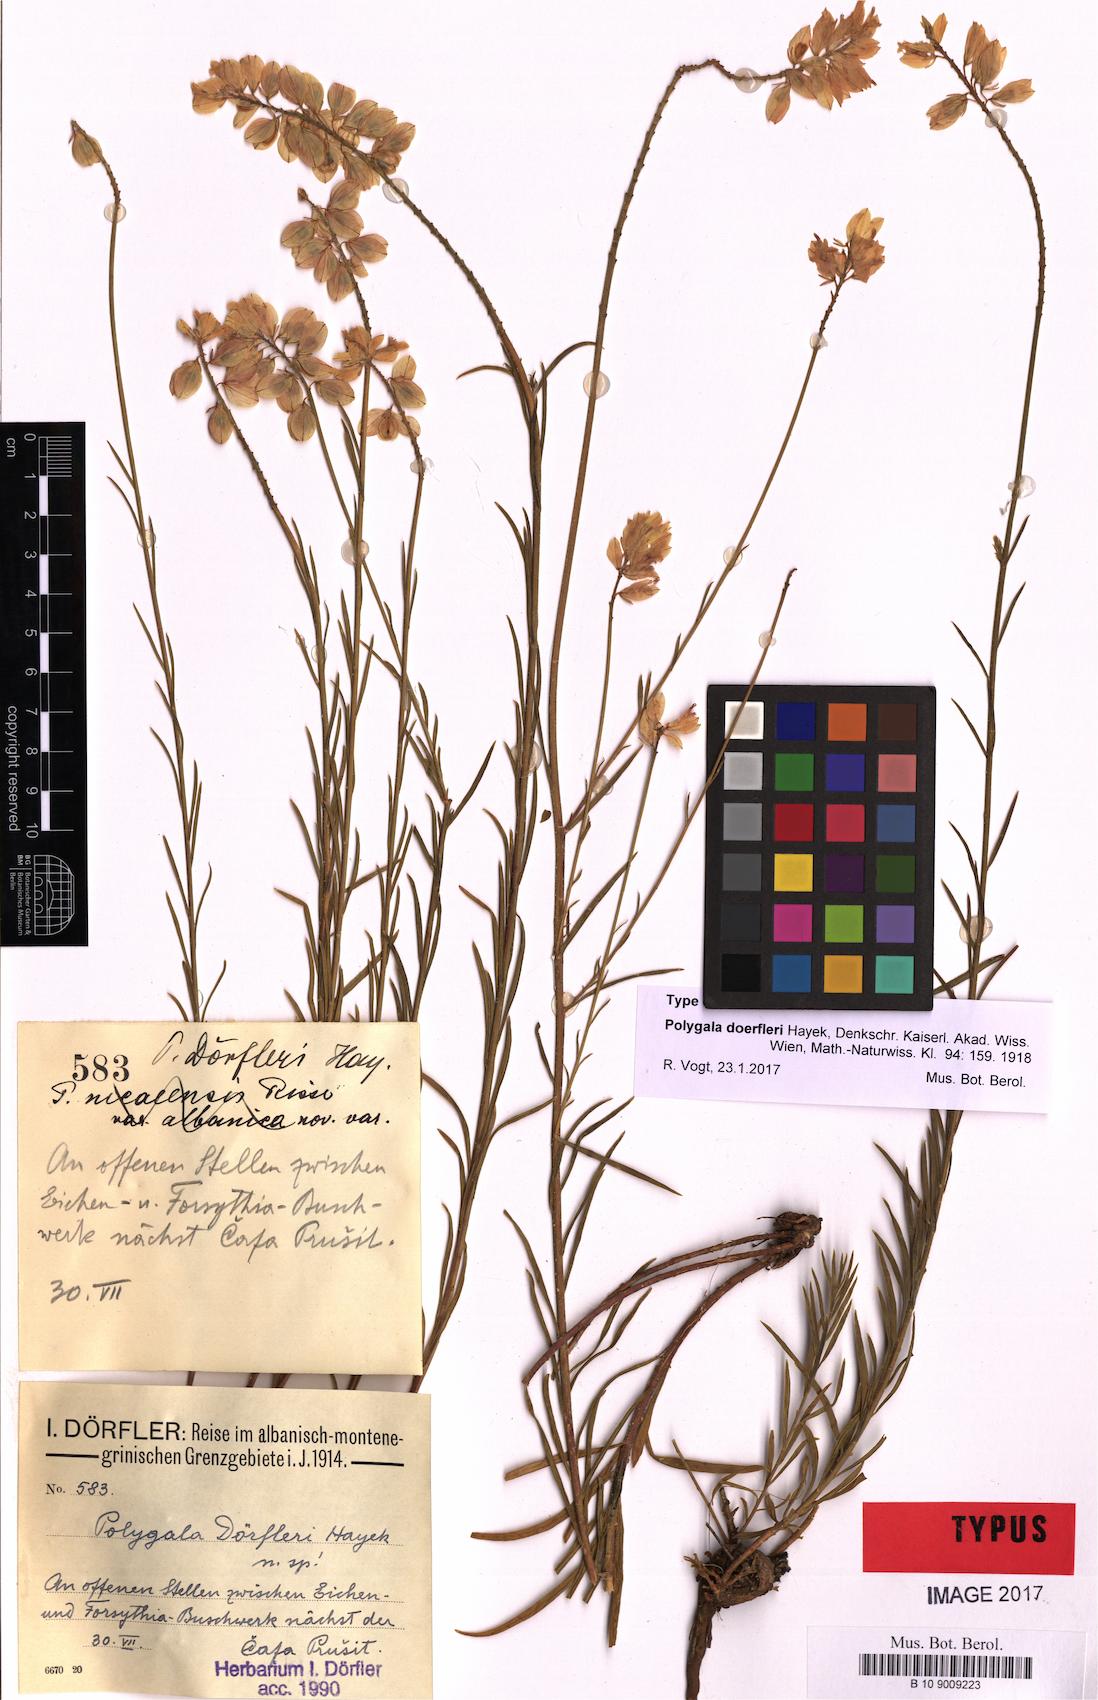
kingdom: Plantae
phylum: Tracheophyta
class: Magnoliopsida
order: Fabales
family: Polygalaceae
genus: Polygala
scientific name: Polygala doerfleri
